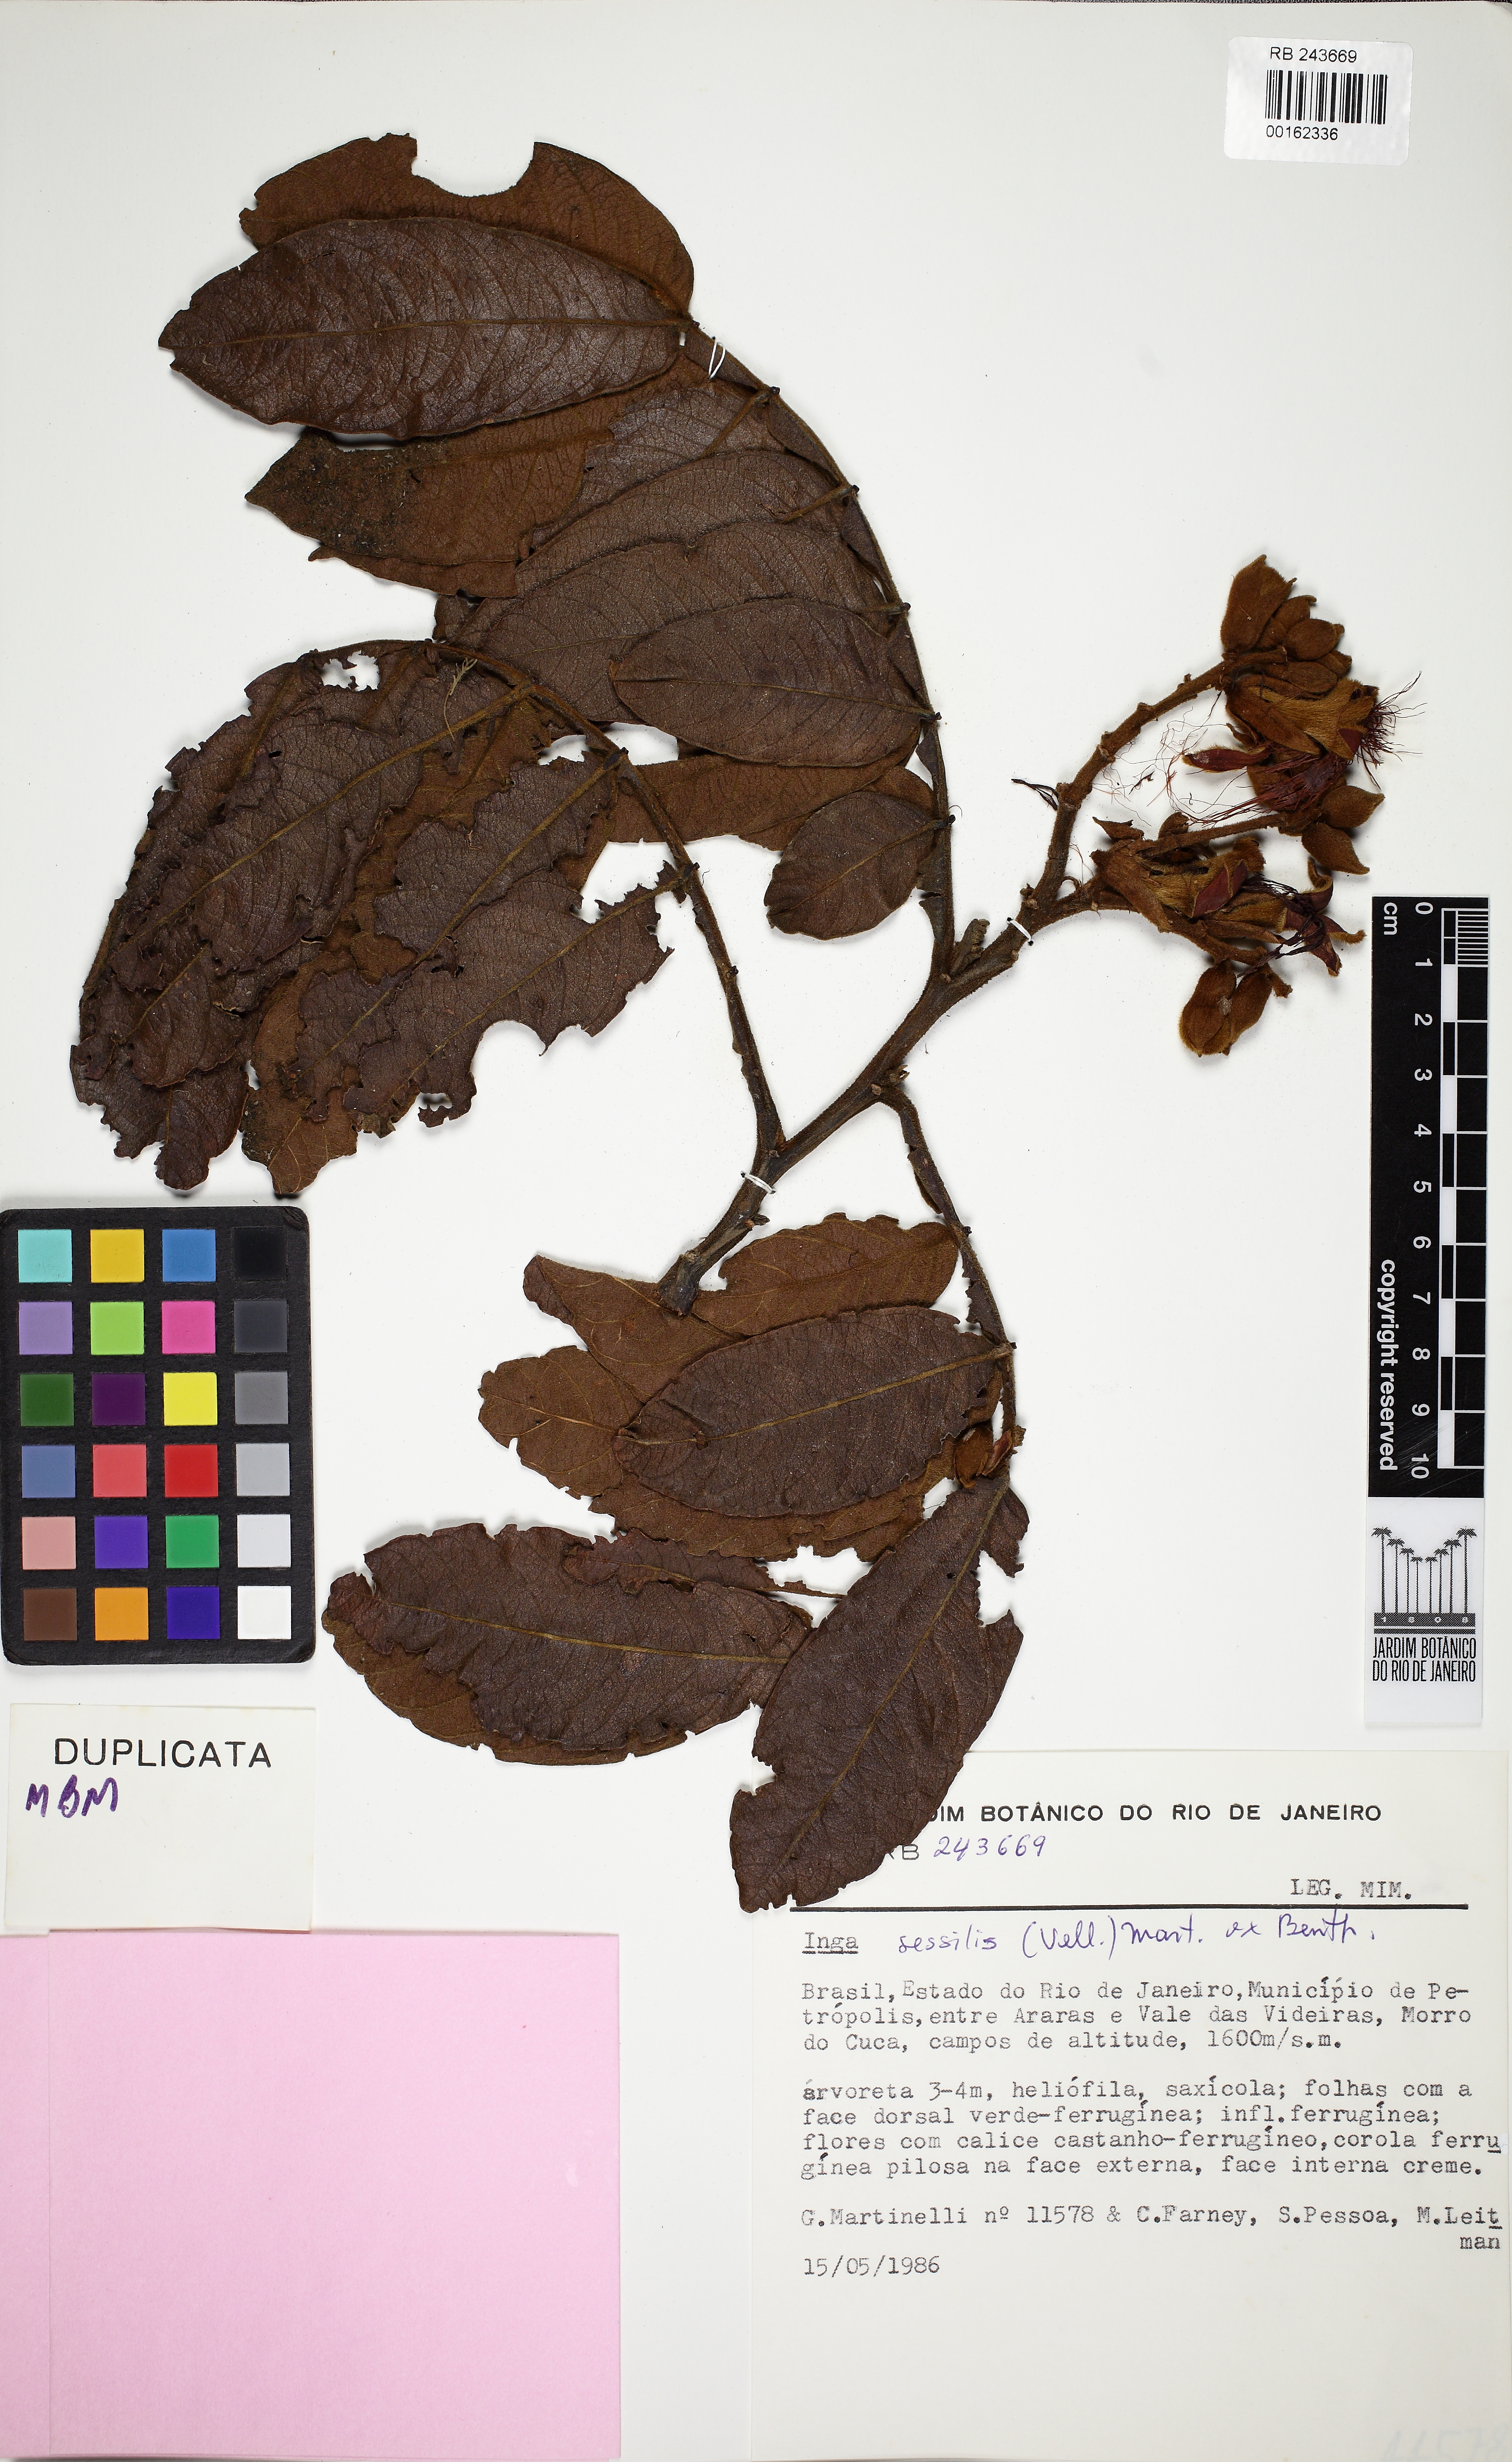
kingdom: Plantae
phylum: Tracheophyta
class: Magnoliopsida
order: Fabales
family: Fabaceae
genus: Inga
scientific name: Inga sessilis
